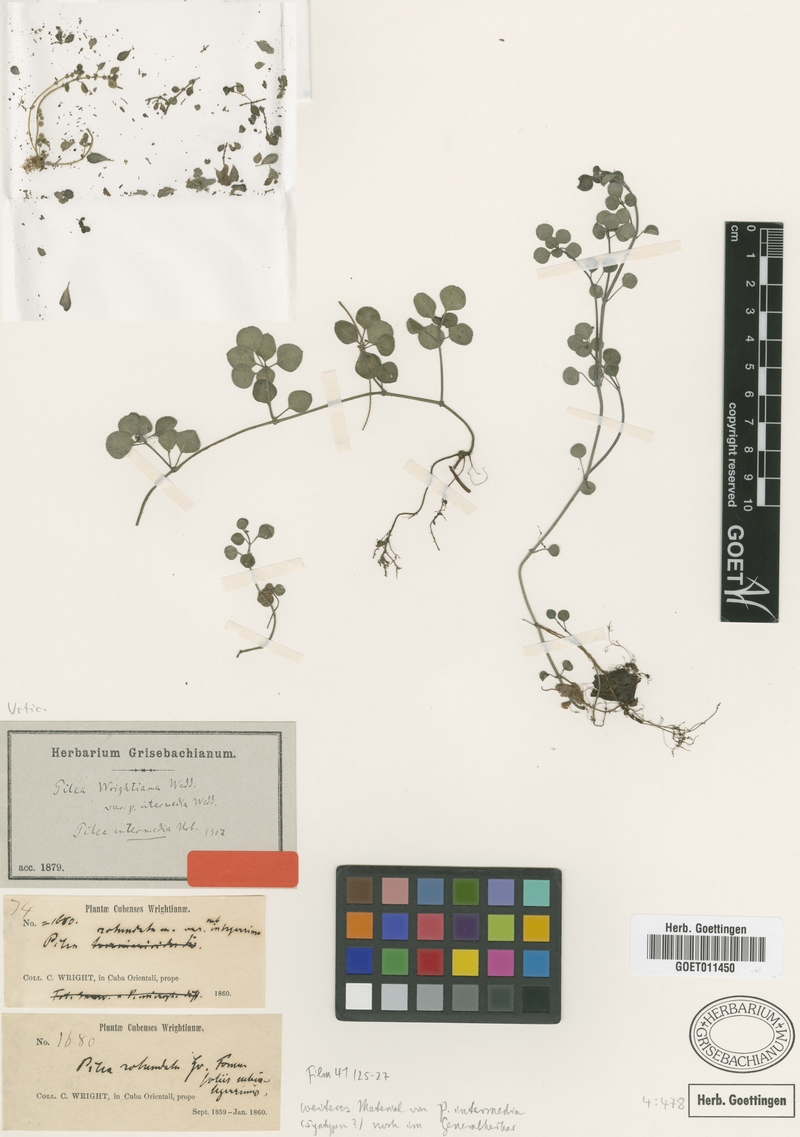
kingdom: Plantae
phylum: Tracheophyta
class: Magnoliopsida
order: Rosales
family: Urticaceae
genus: Pilea
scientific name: Pilea intermedia
